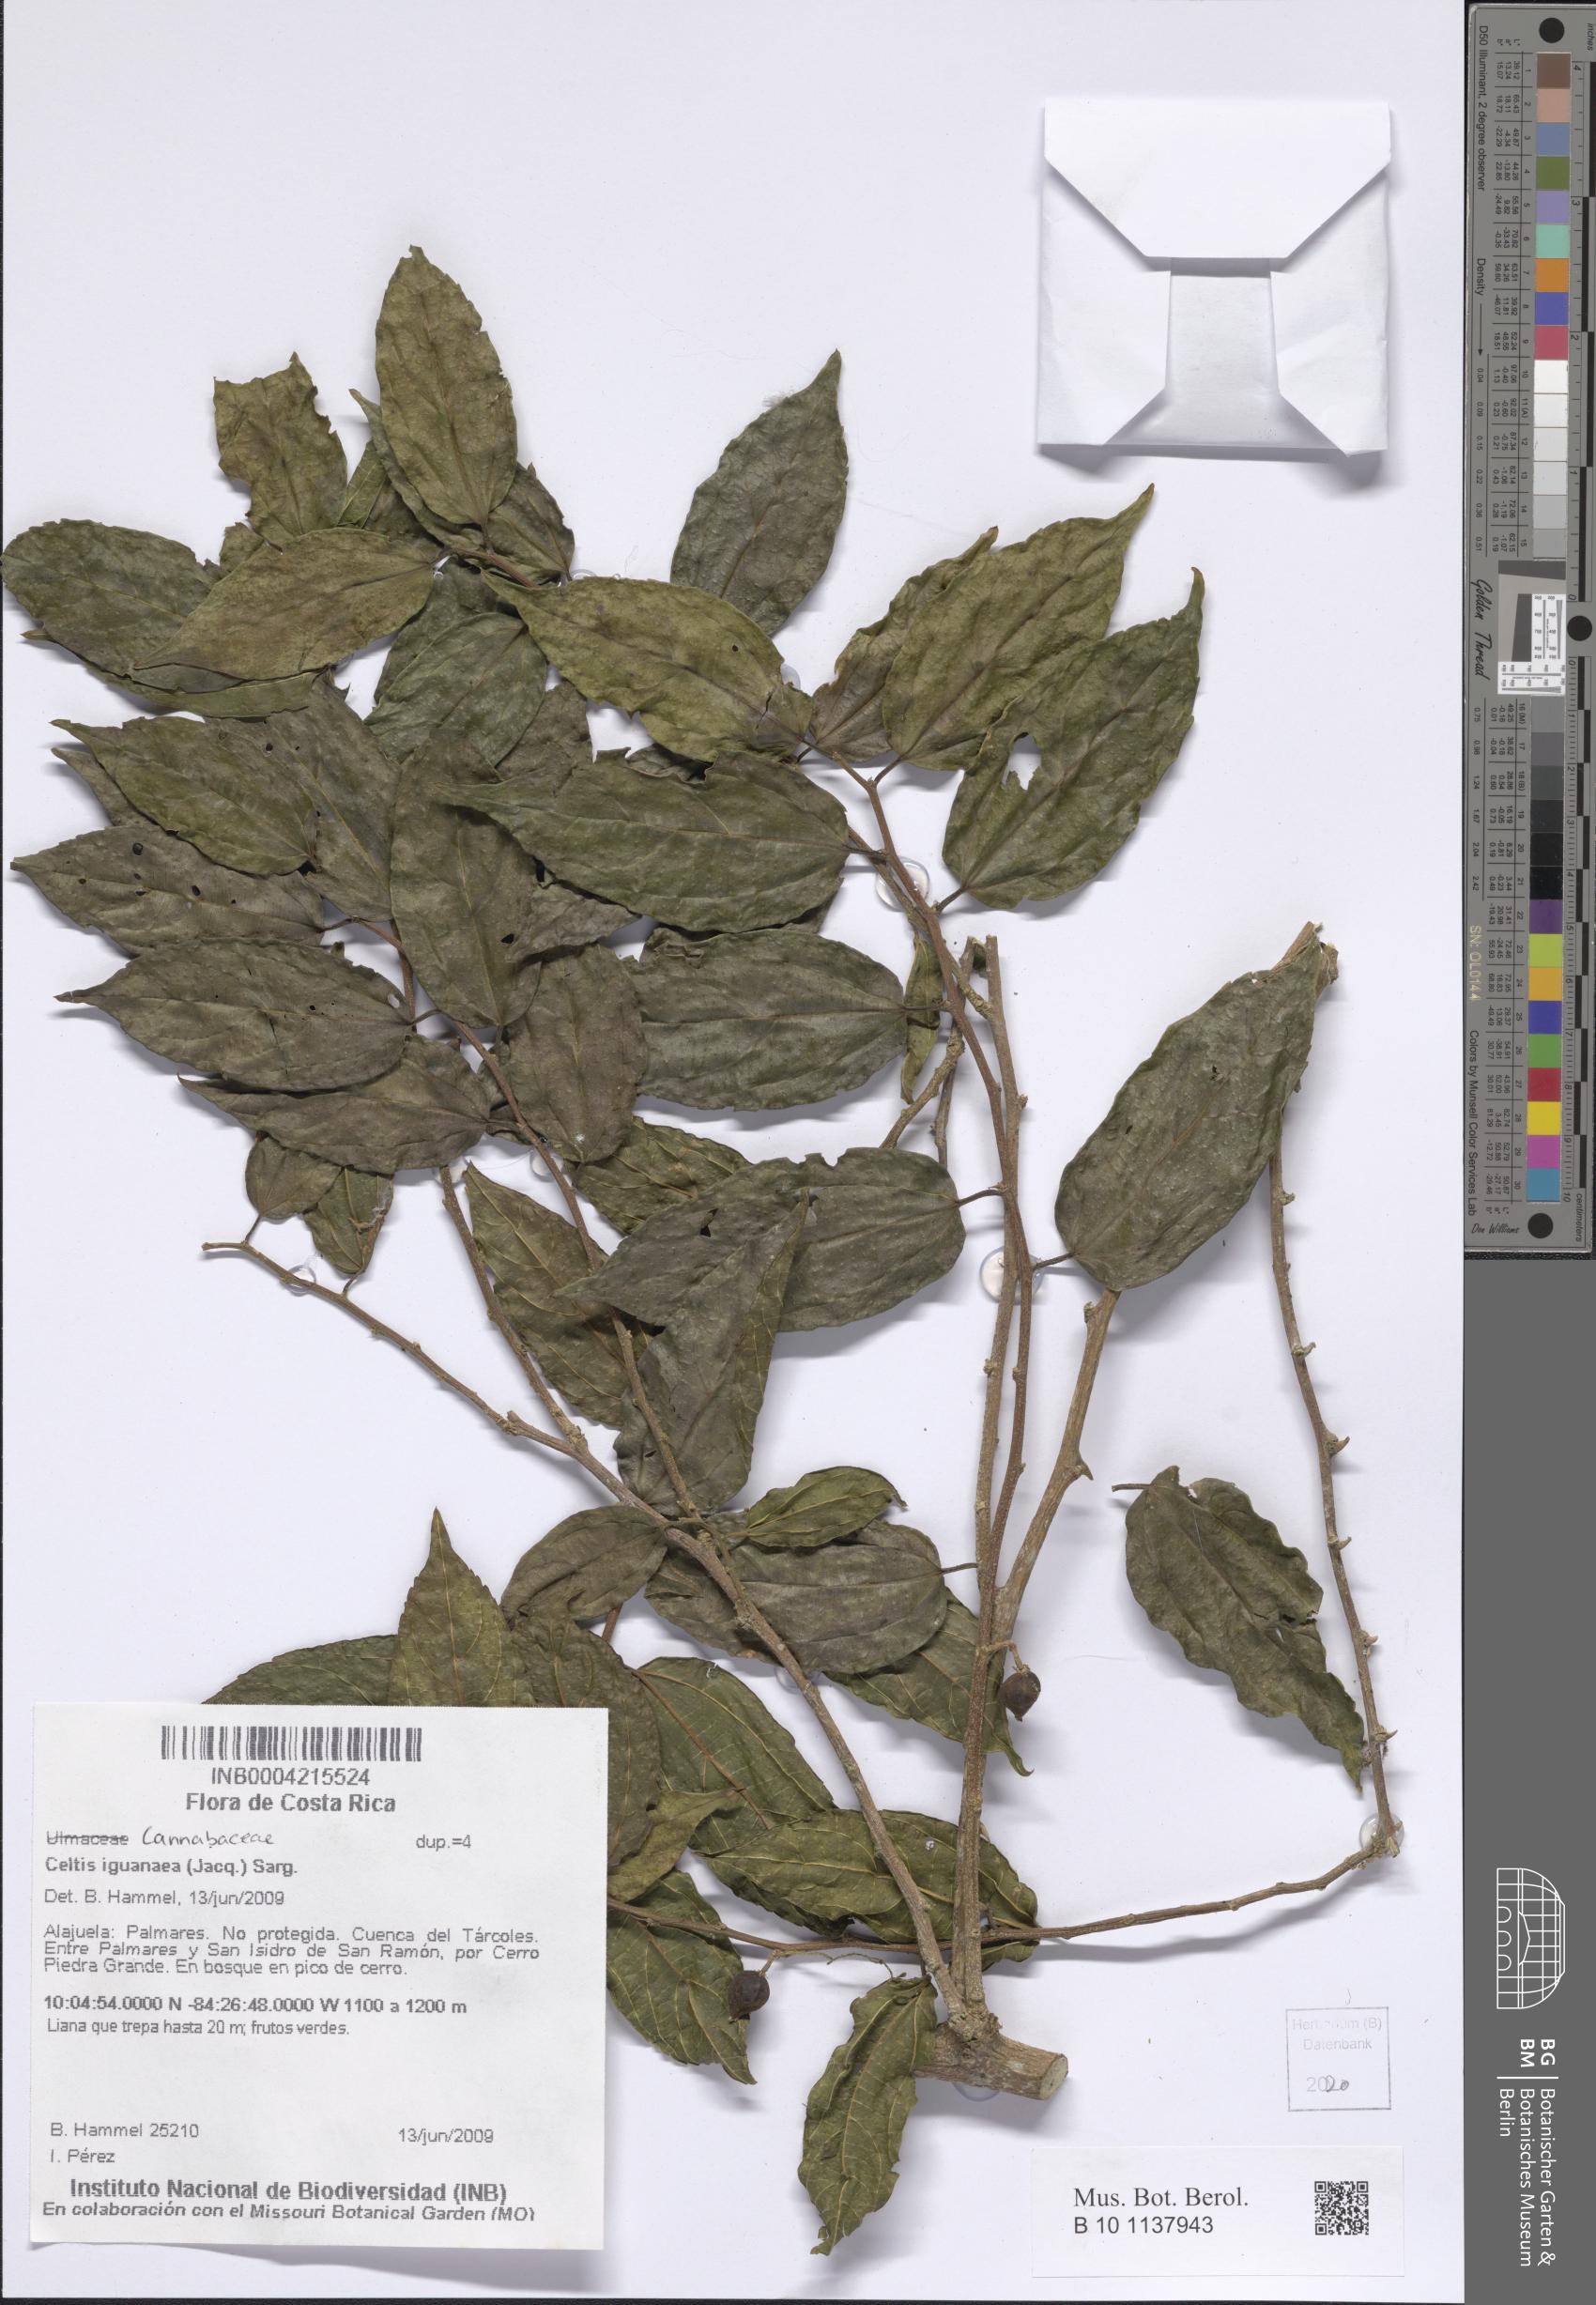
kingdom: Plantae
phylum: Tracheophyta
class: Magnoliopsida
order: Rosales
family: Cannabaceae
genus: Celtis
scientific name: Celtis iguanaea
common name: Iguana hackberry
